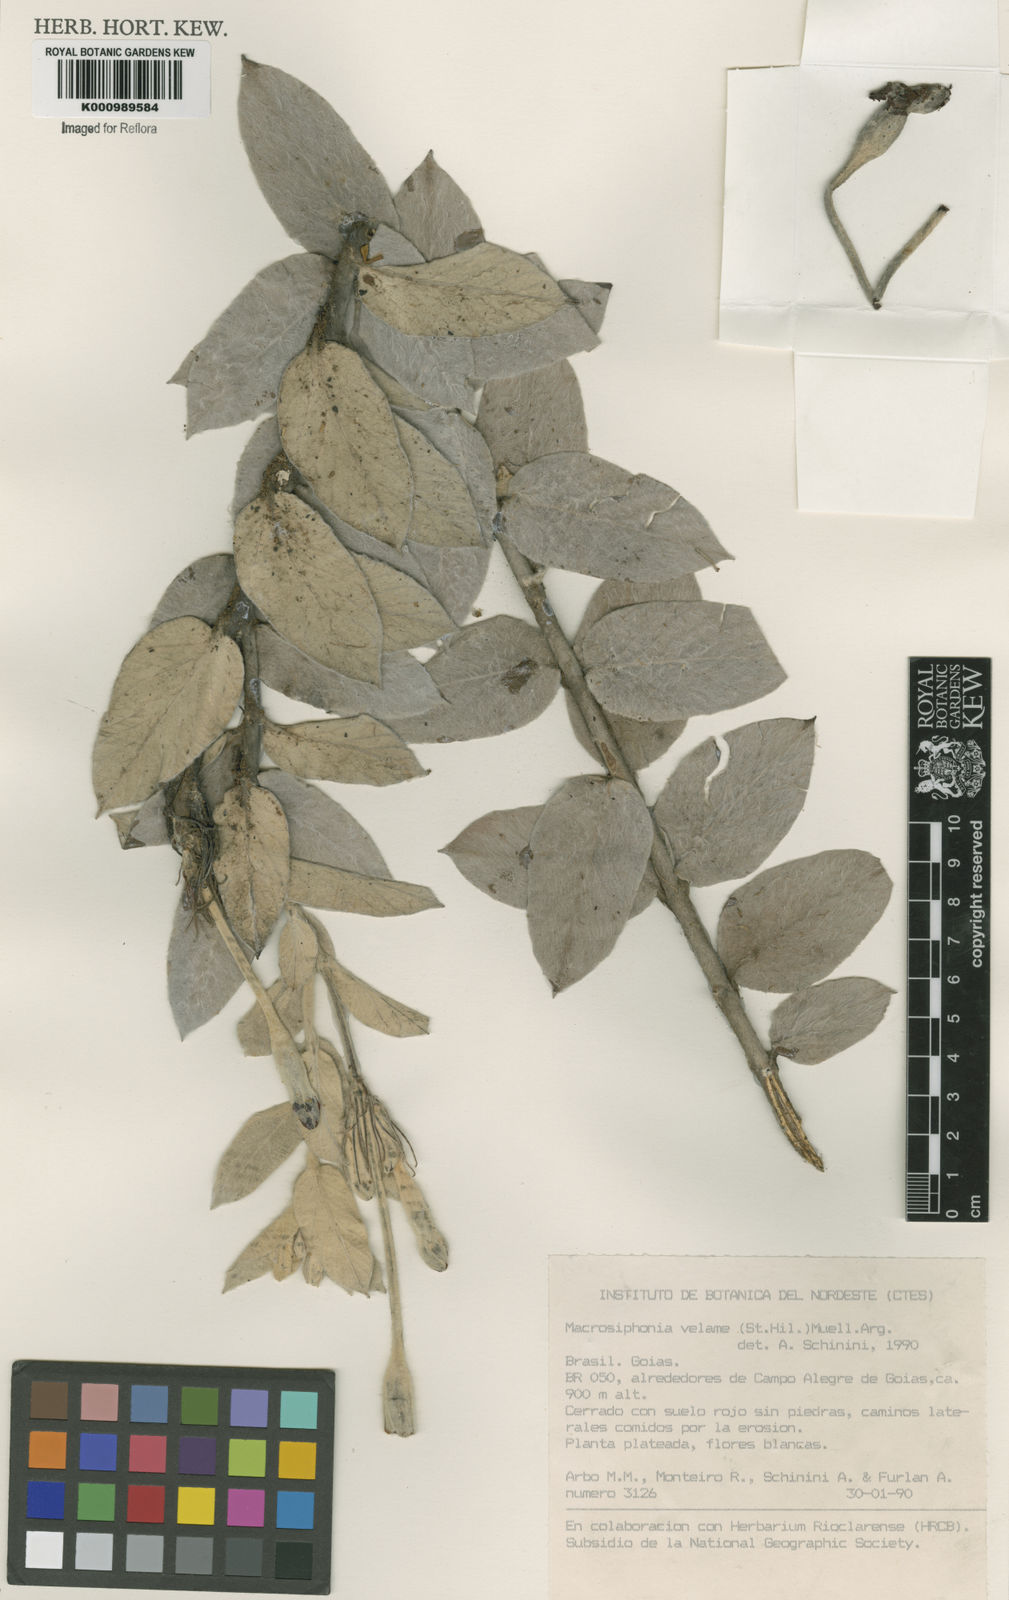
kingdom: Plantae
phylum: Tracheophyta
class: Magnoliopsida
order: Gentianales
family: Apocynaceae
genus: Mandevilla
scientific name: Mandevilla velame
